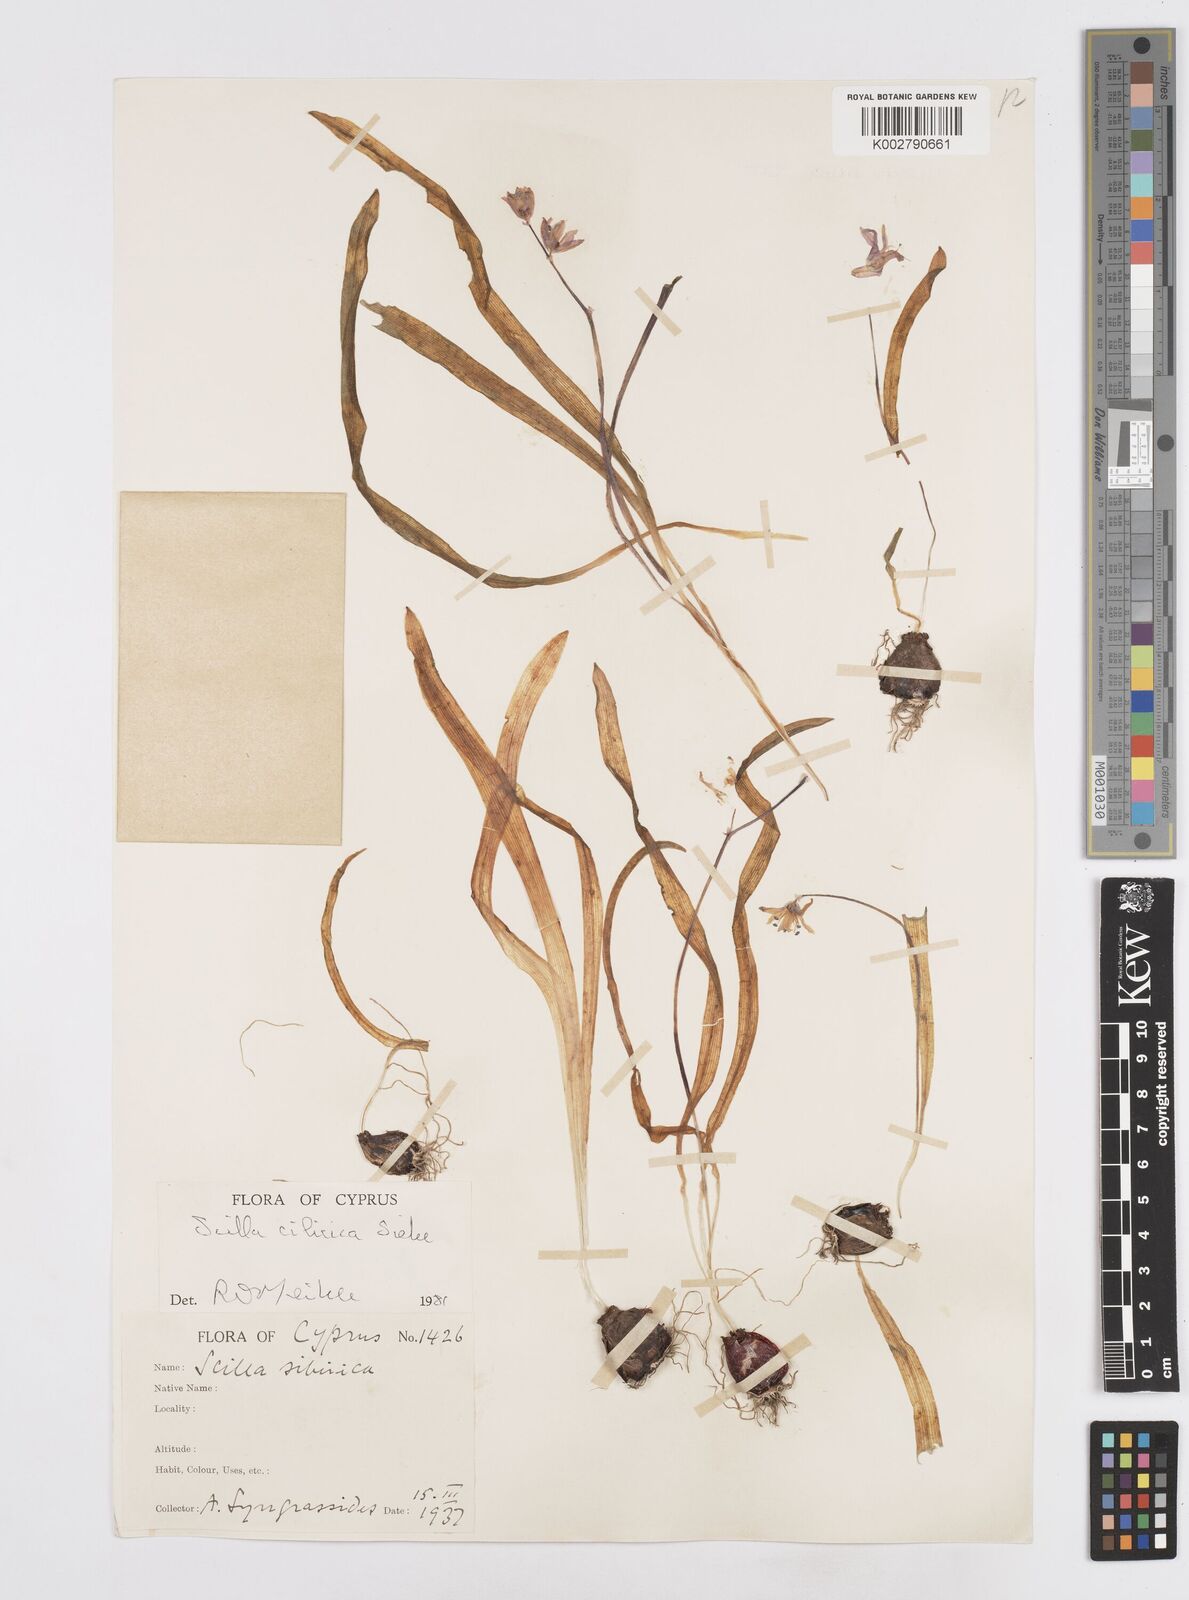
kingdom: Plantae
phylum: Tracheophyta
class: Liliopsida
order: Asparagales
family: Asparagaceae
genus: Scilla
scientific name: Scilla cilicica
